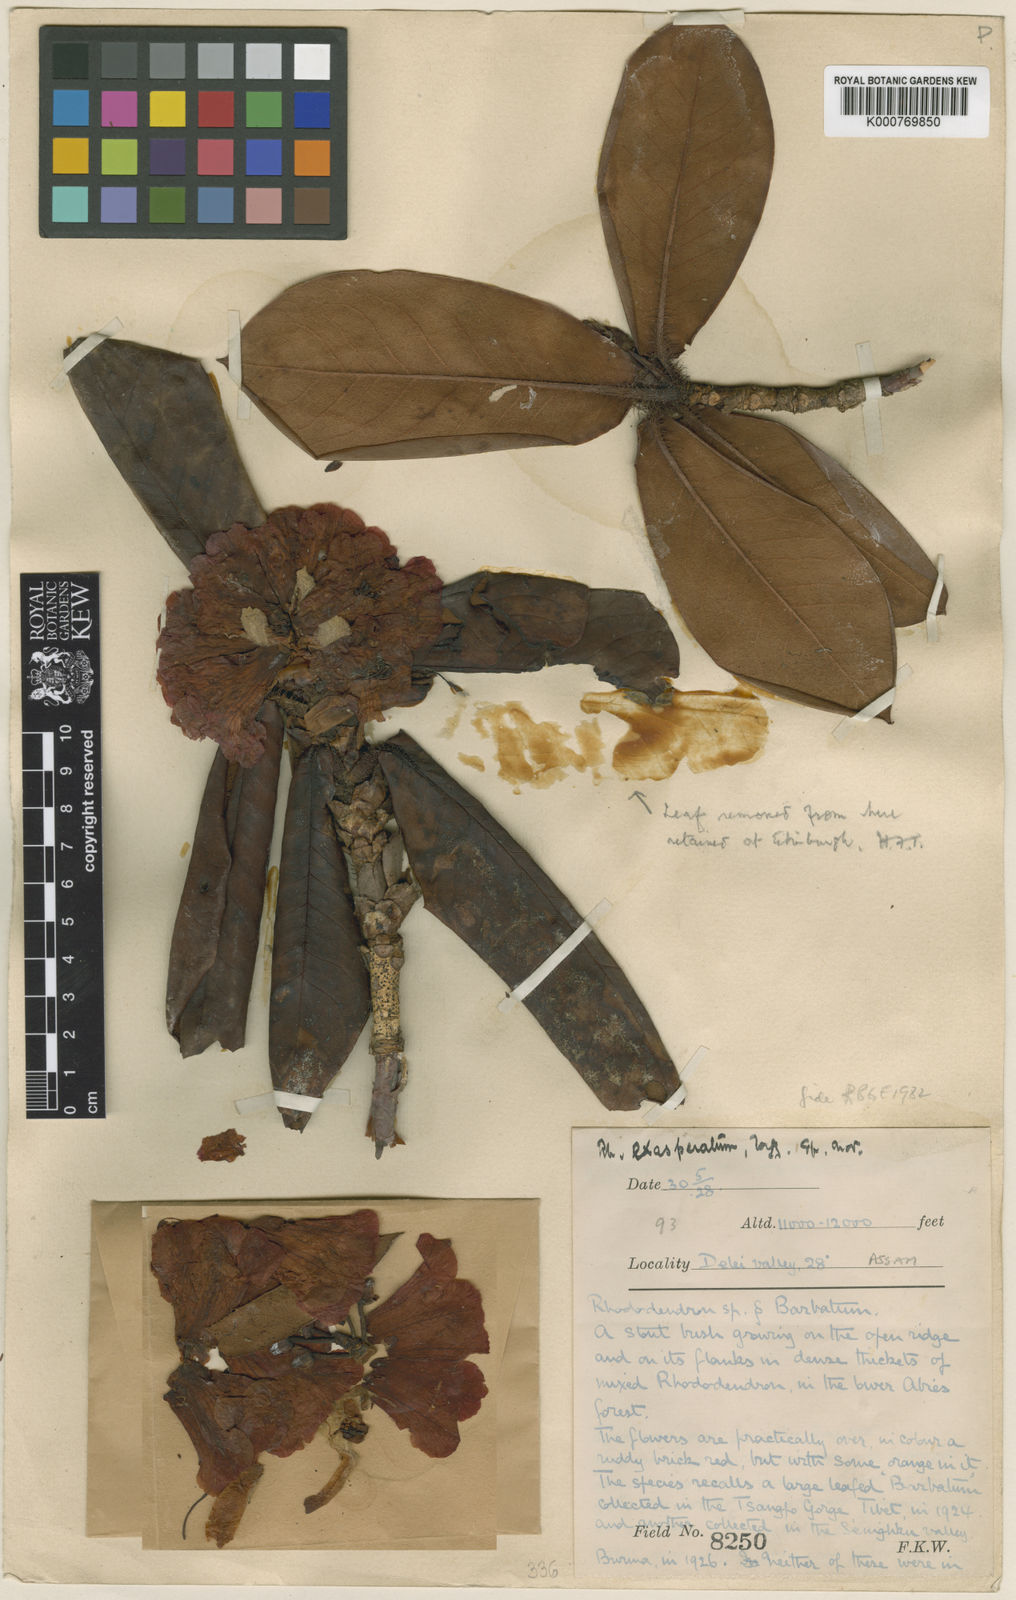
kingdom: Plantae
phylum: Tracheophyta
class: Magnoliopsida
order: Ericales
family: Ericaceae
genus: Rhododendron
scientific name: Rhododendron
